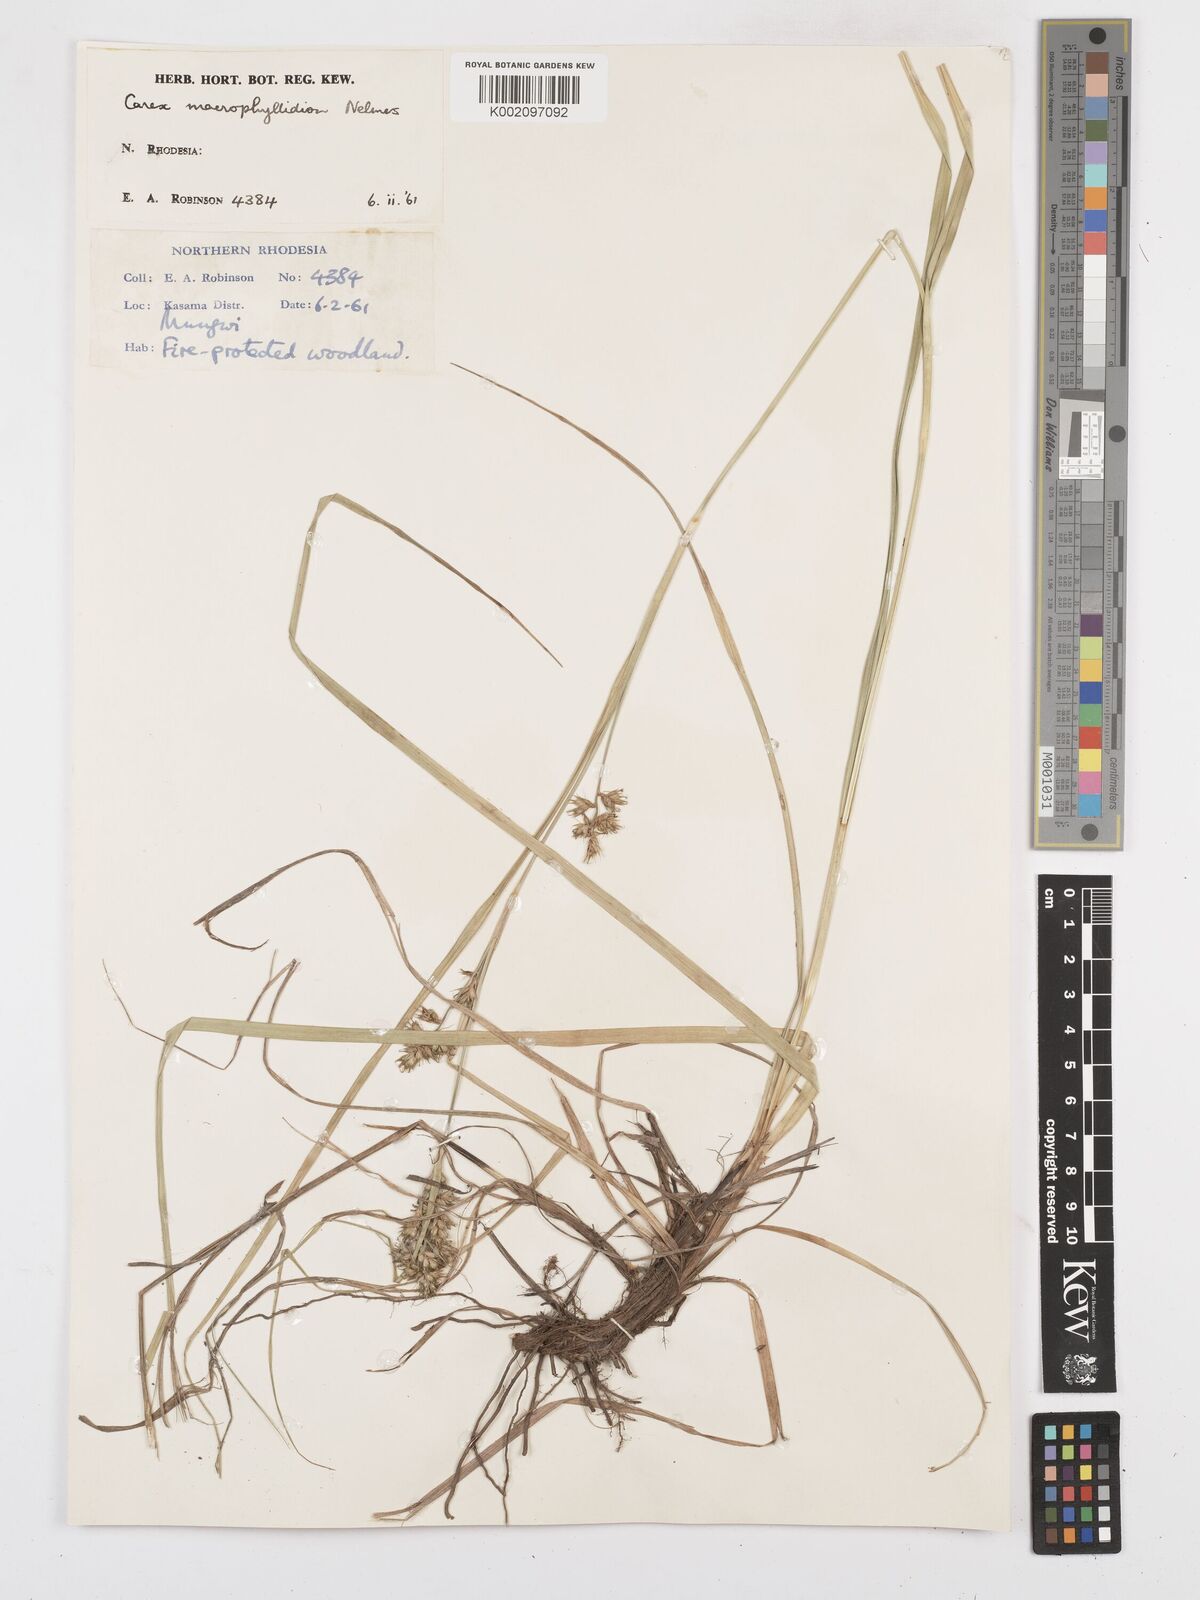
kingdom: Plantae
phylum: Tracheophyta
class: Liliopsida
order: Poales
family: Cyperaceae
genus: Carex
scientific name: Carex macrophyllidion
